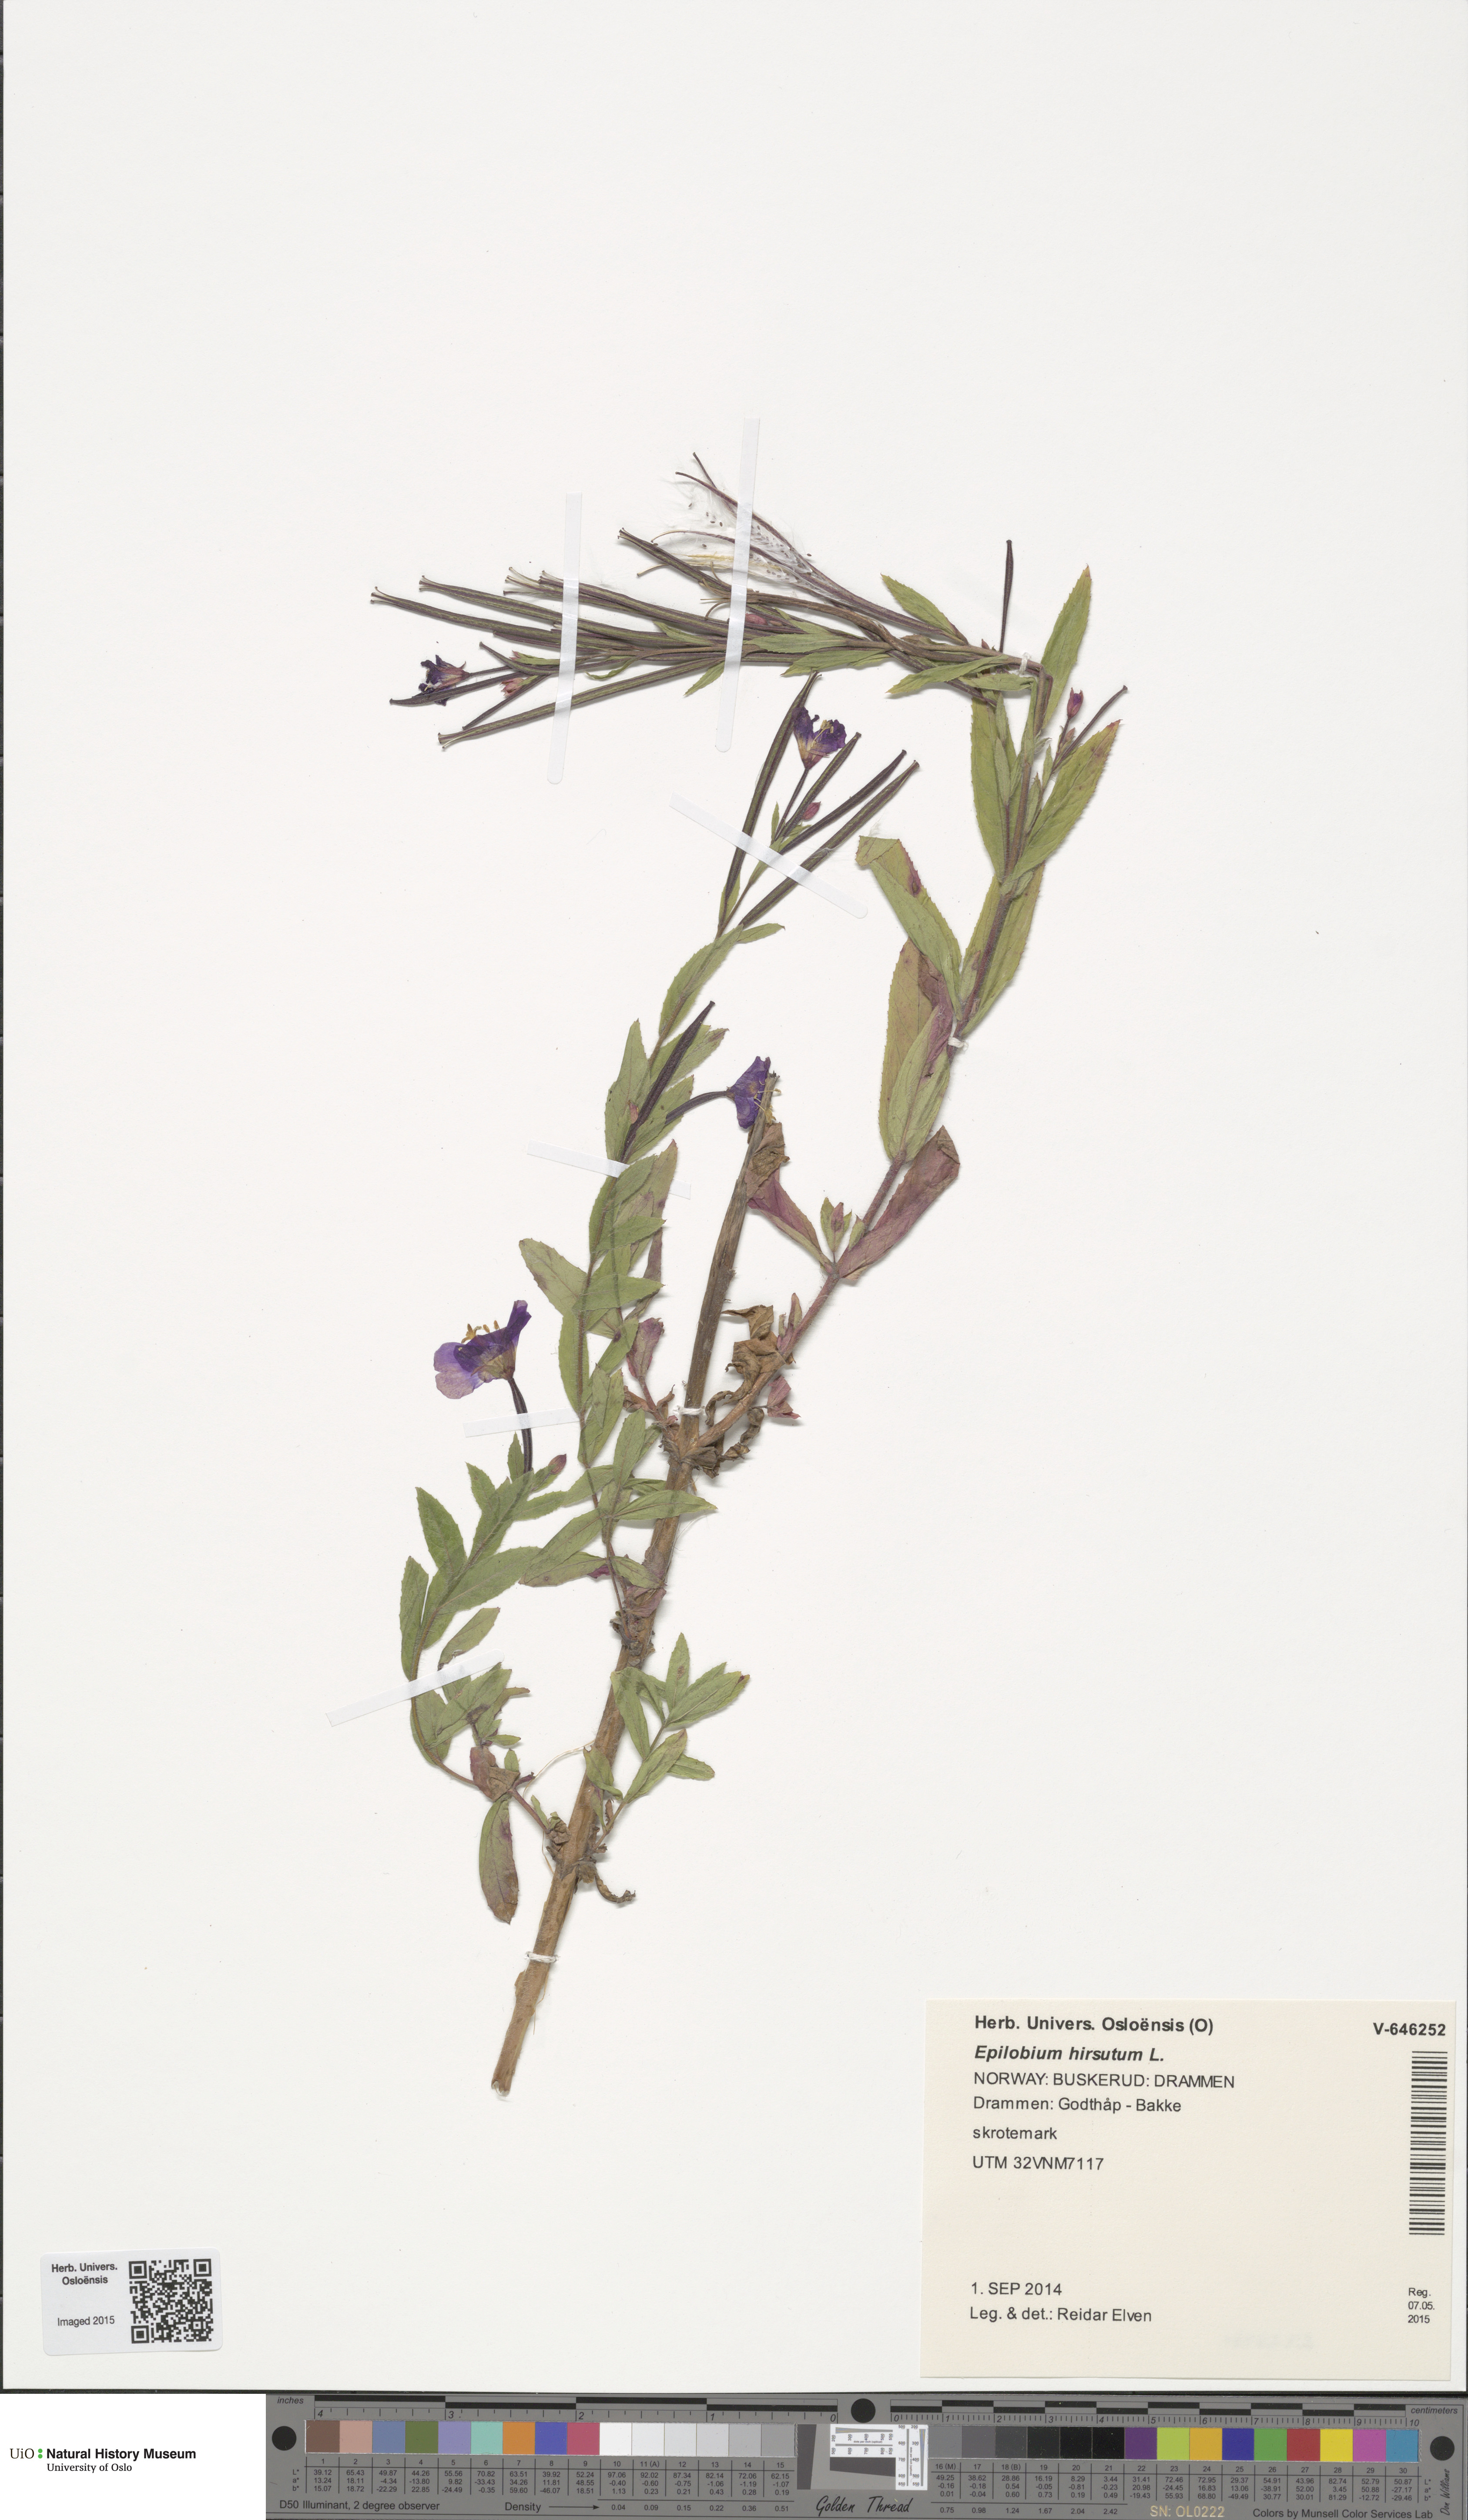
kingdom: Plantae
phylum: Tracheophyta
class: Magnoliopsida
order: Myrtales
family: Onagraceae
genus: Epilobium
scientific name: Epilobium hirsutum
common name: Great willowherb
